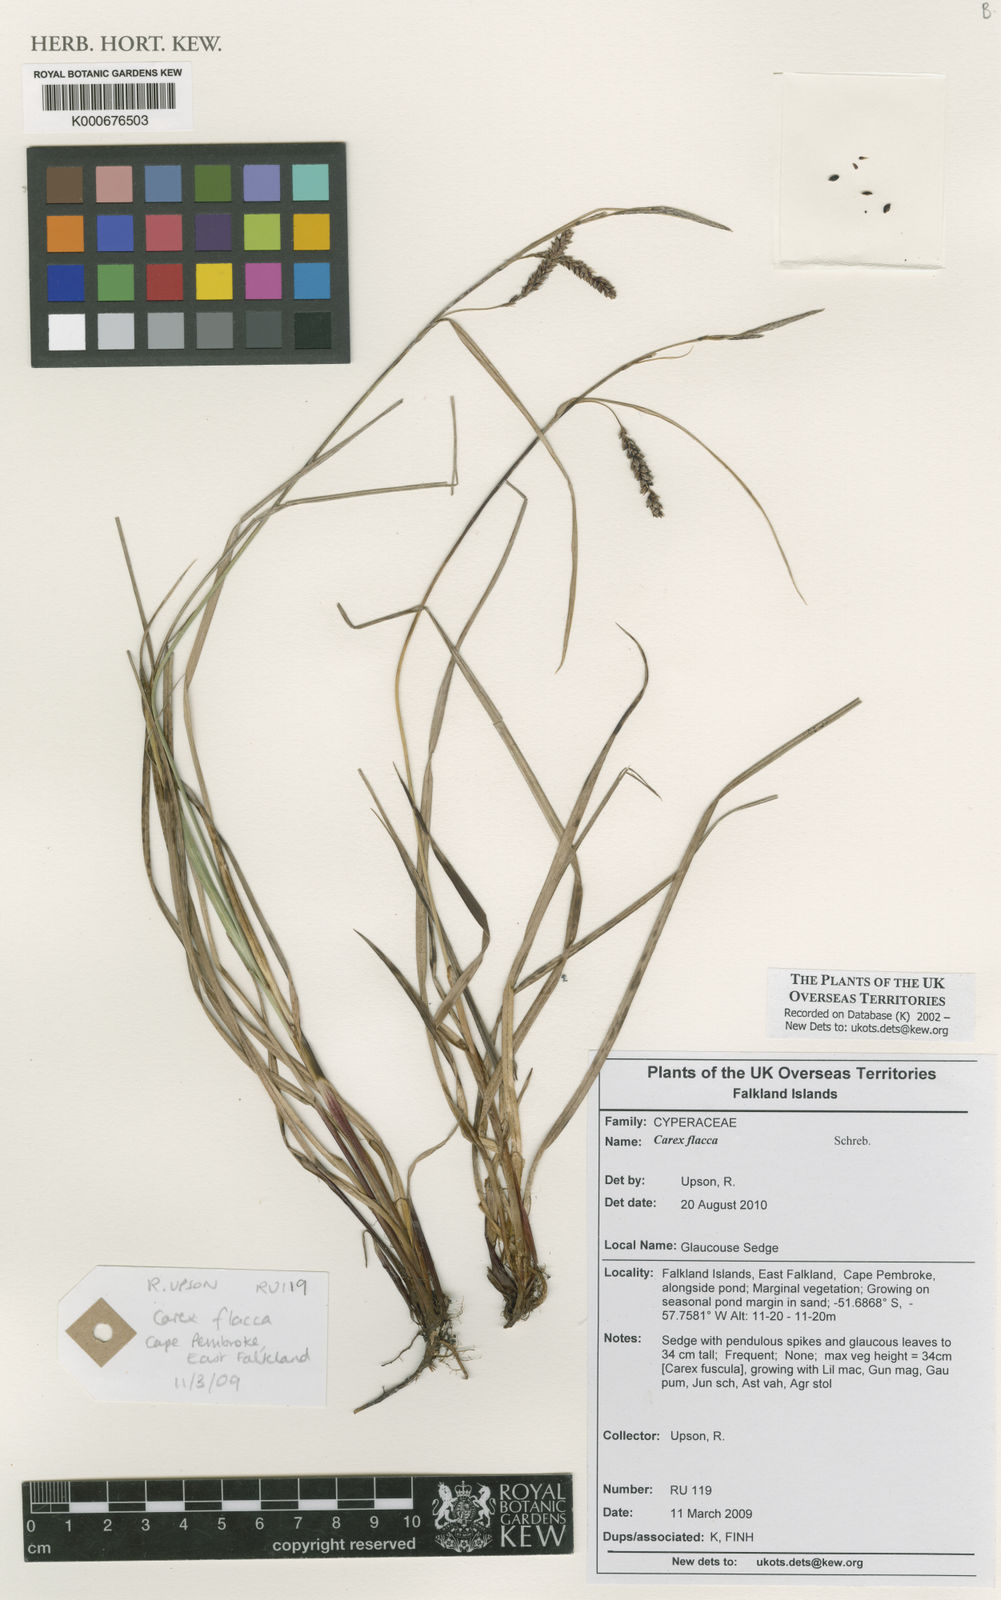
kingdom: Plantae
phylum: Tracheophyta
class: Liliopsida
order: Poales
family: Cyperaceae
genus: Carex
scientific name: Carex flacca
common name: Glaucous sedge
